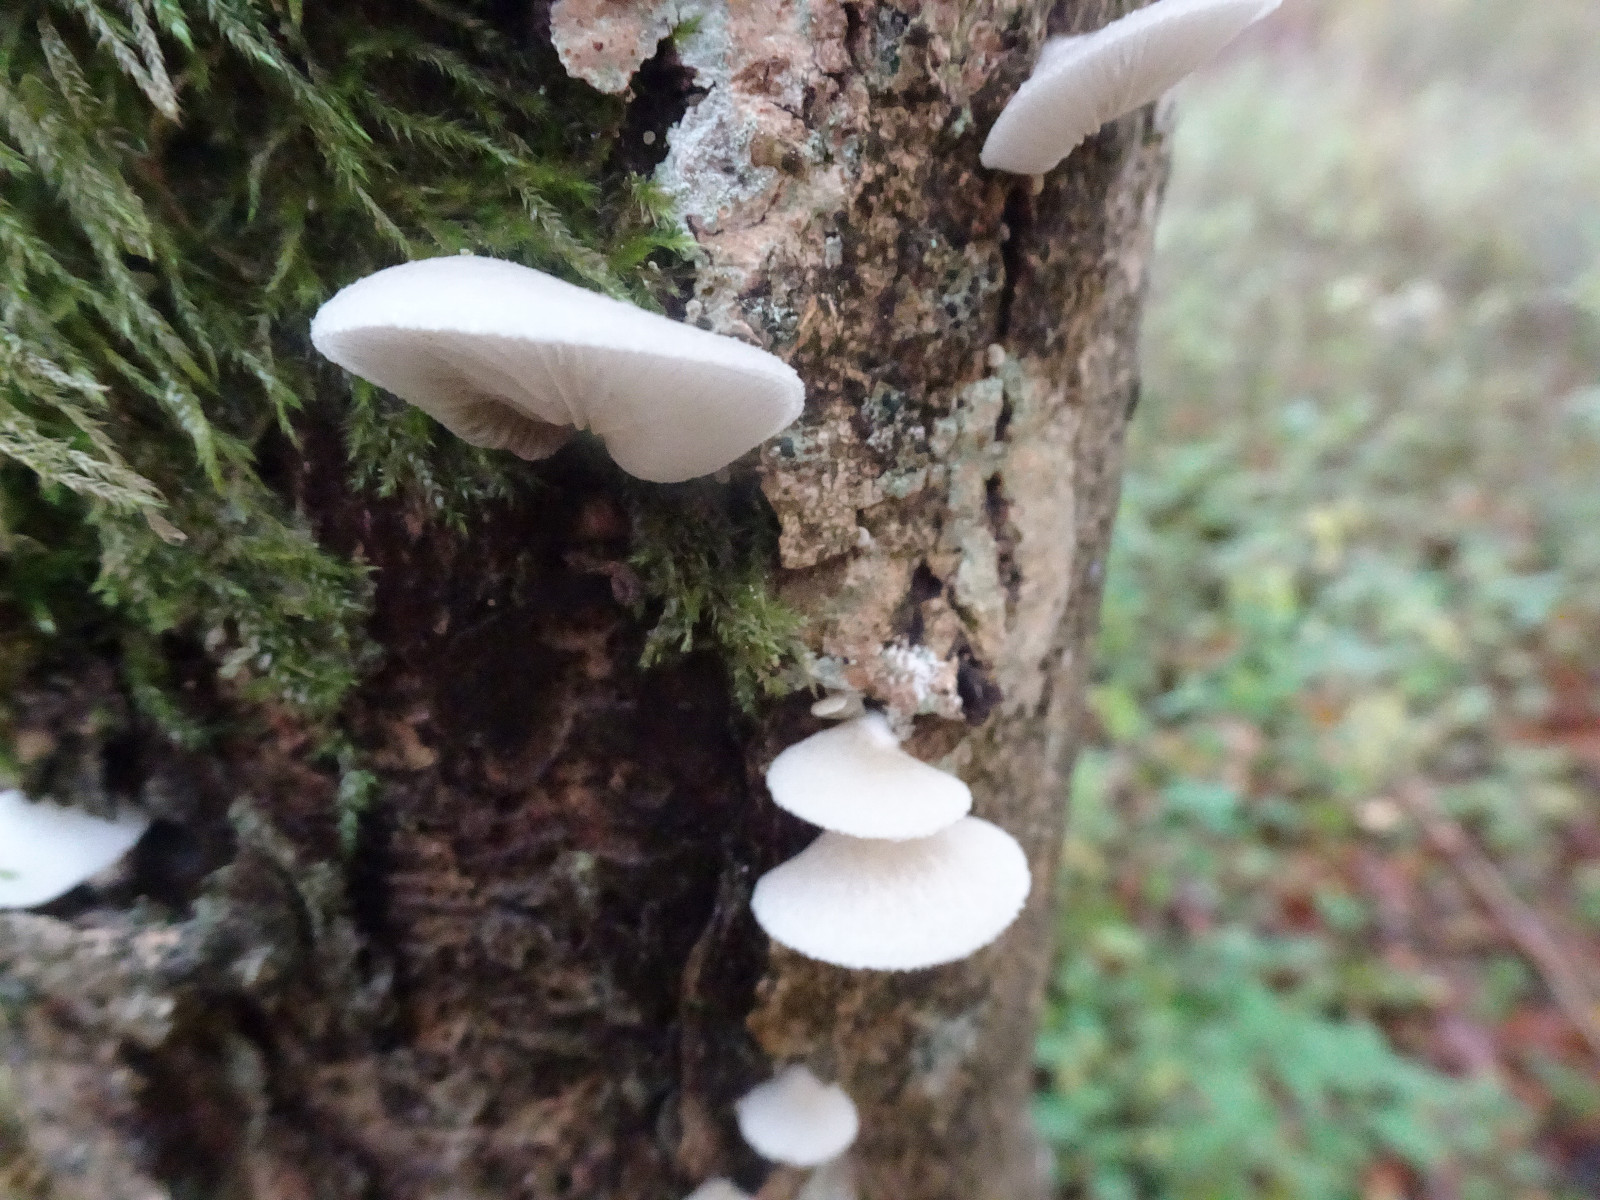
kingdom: Fungi
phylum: Basidiomycota
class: Agaricomycetes
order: Agaricales
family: Crepidotaceae
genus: Crepidotus
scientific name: Crepidotus mollis
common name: blød muslingesvamp
